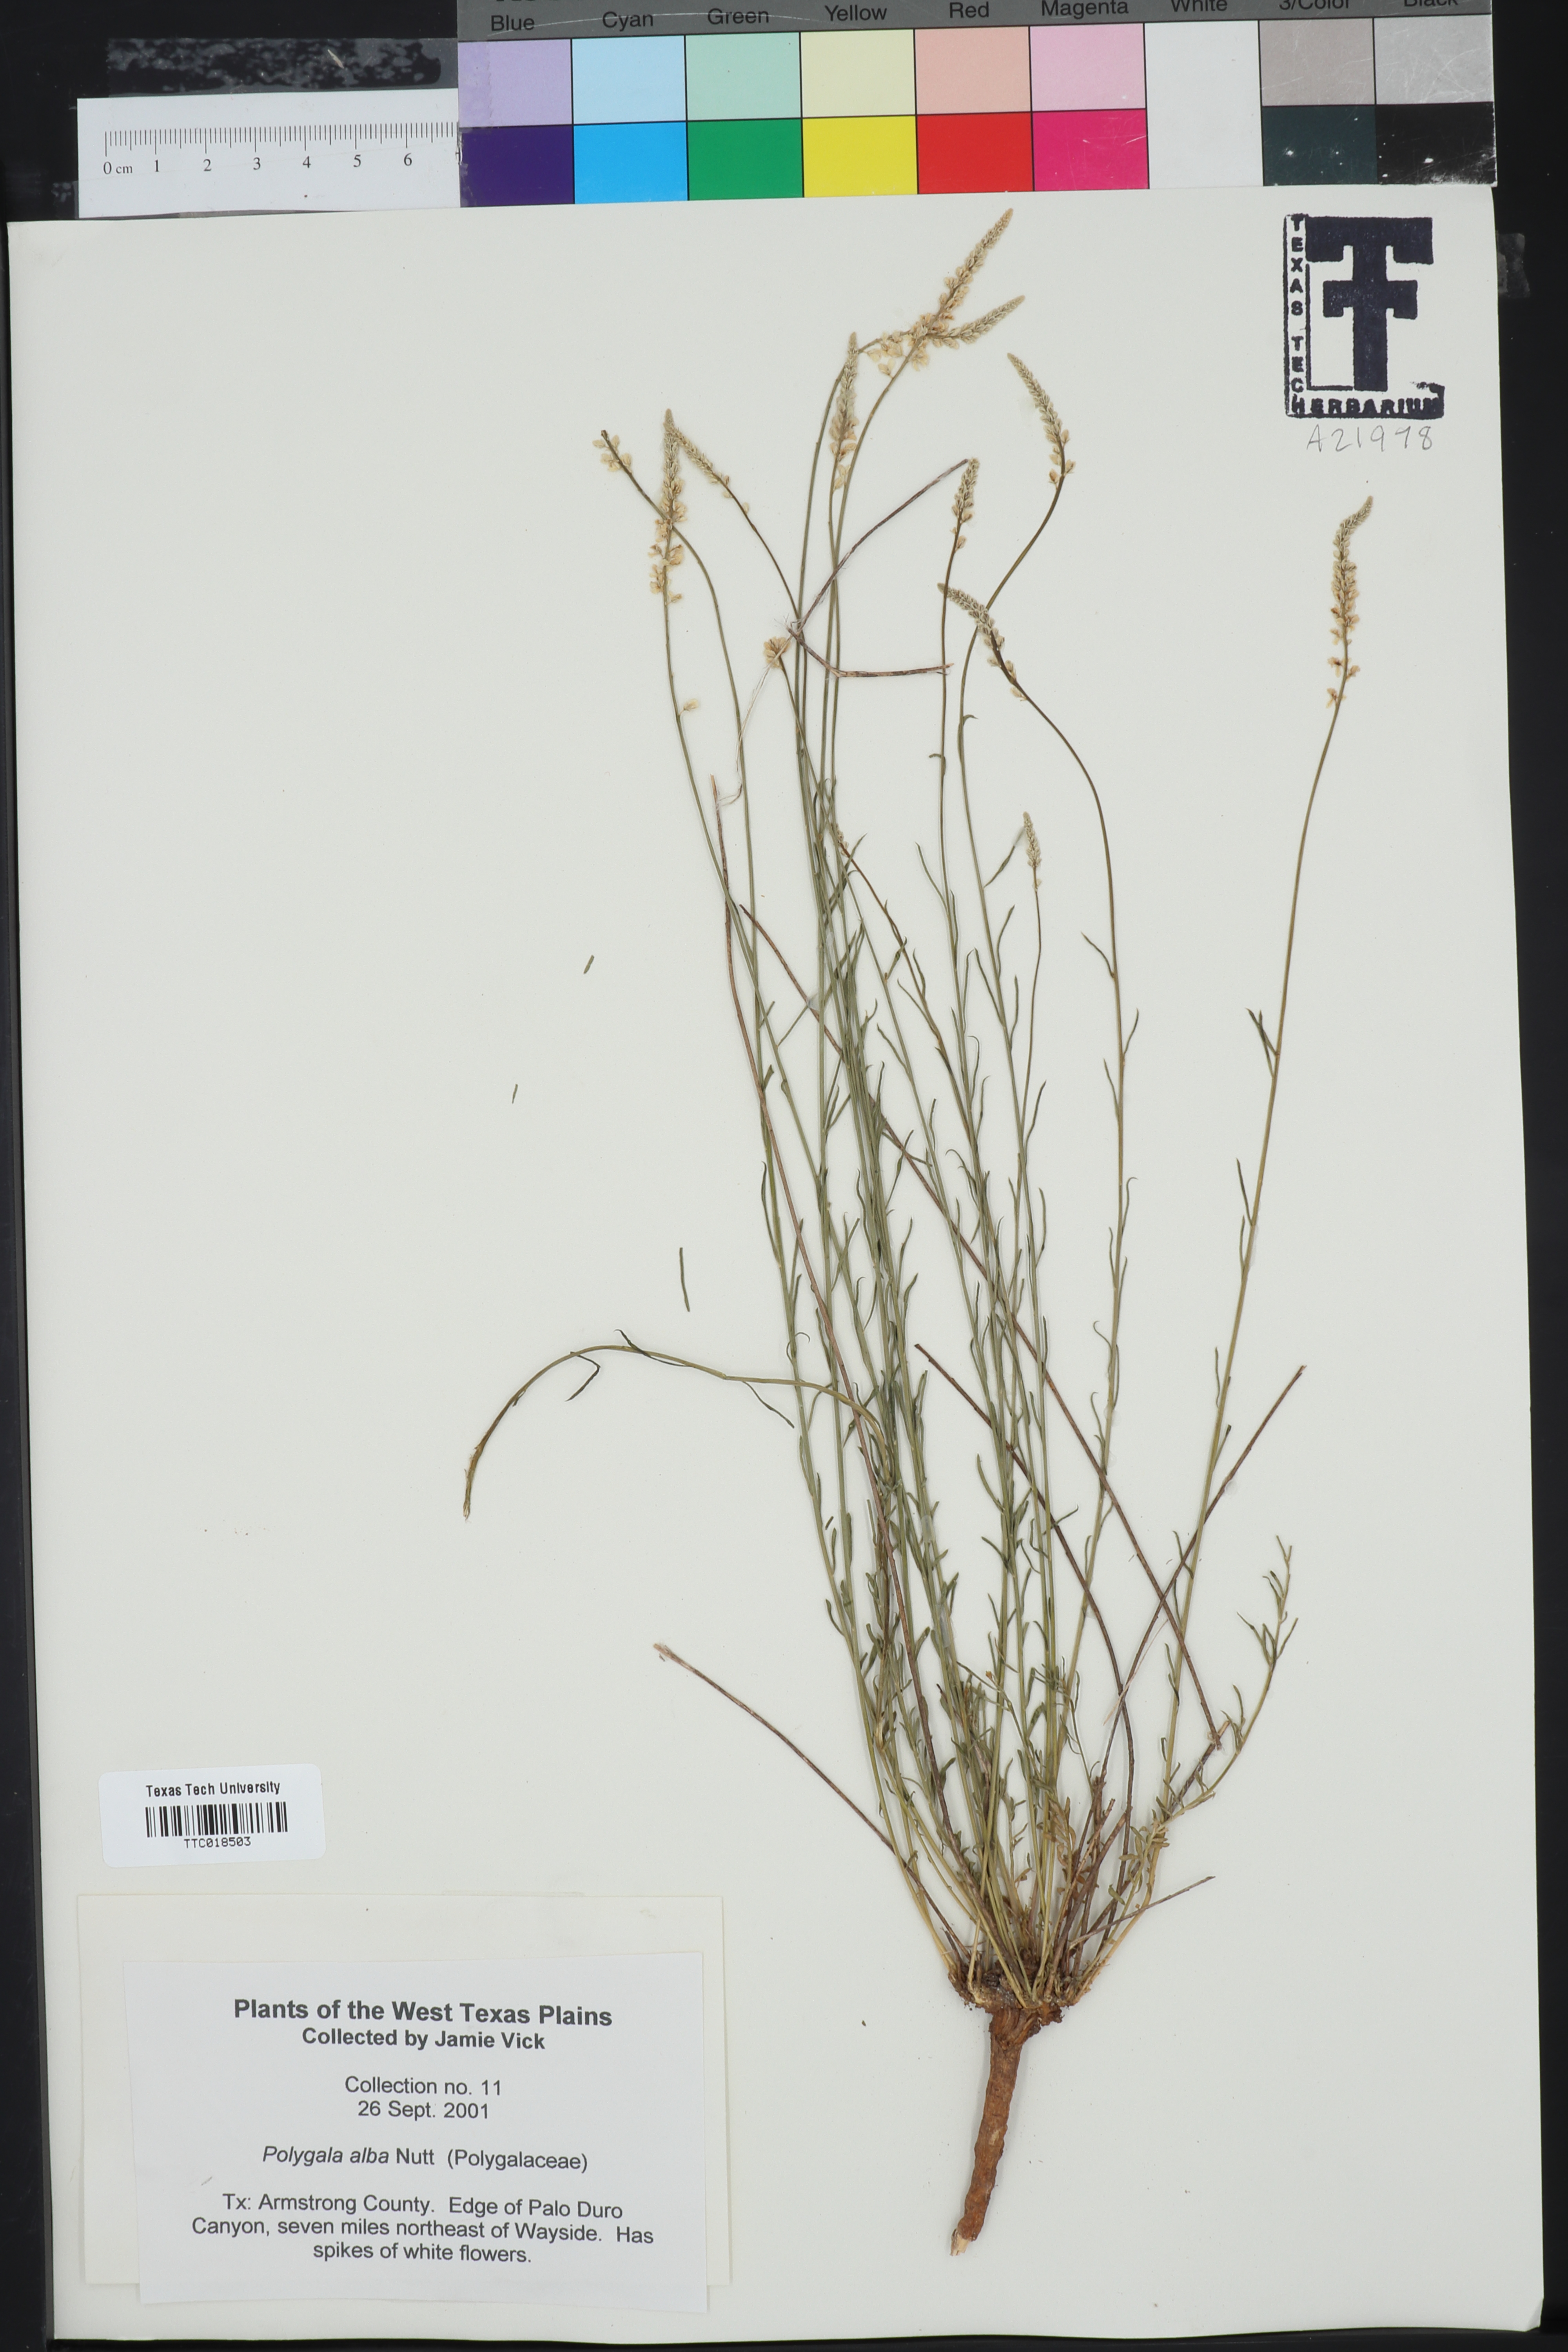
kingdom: Plantae
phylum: Tracheophyta
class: Magnoliopsida
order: Fabales
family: Polygalaceae
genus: Polygala
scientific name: Polygala alba
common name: White milkwort
